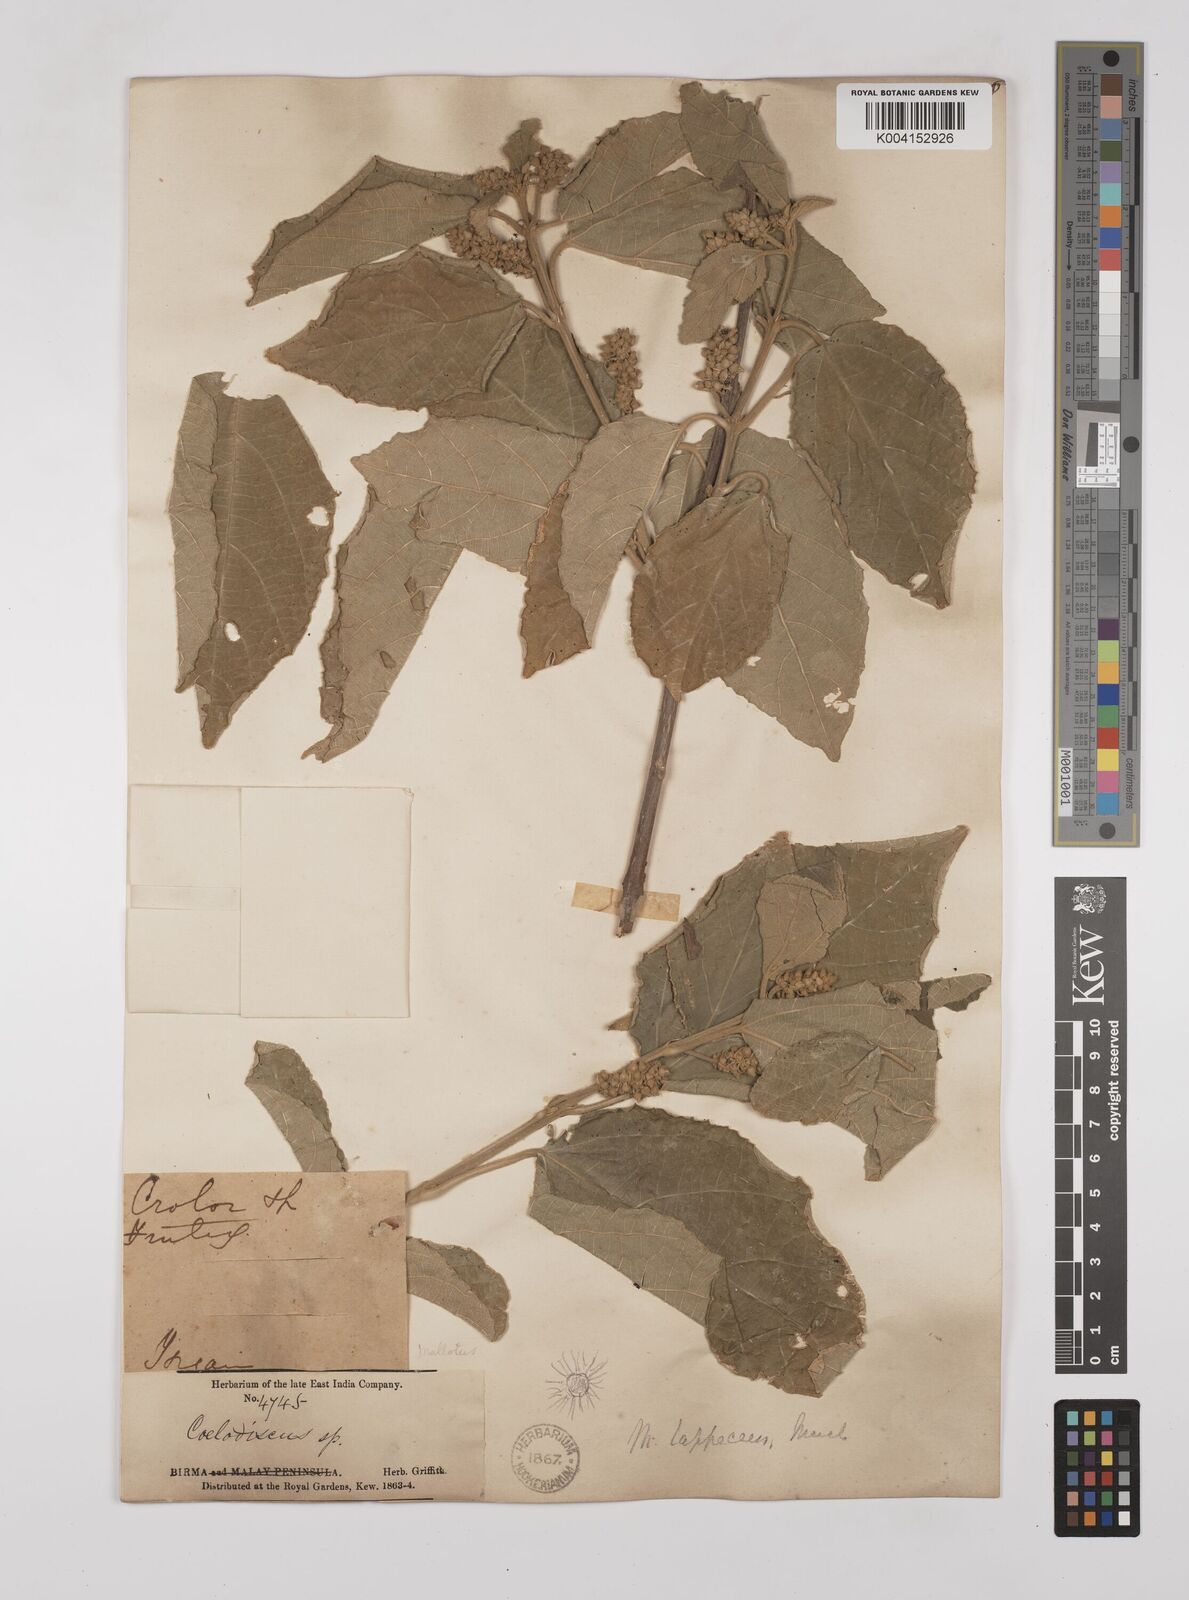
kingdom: Plantae
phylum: Tracheophyta
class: Magnoliopsida
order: Malpighiales
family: Euphorbiaceae
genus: Mallotus
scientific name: Mallotus lappaceus
